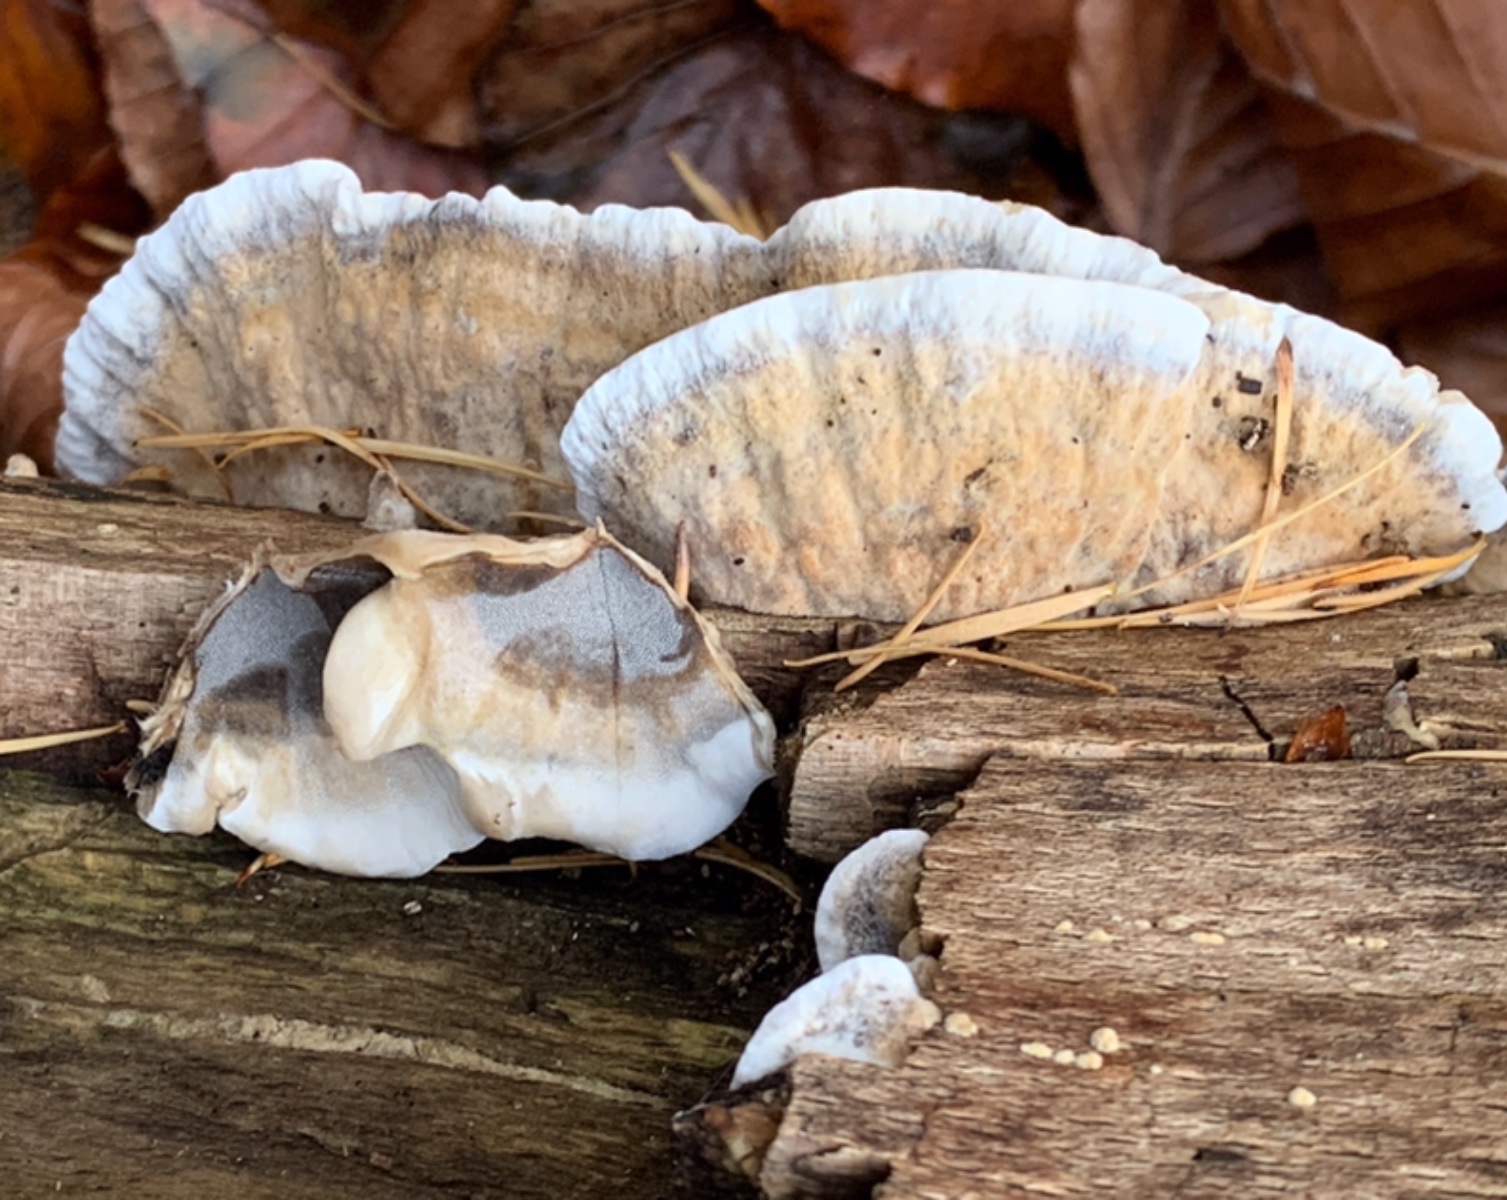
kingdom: Fungi
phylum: Basidiomycota
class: Agaricomycetes
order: Polyporales
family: Phanerochaetaceae
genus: Bjerkandera
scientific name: Bjerkandera adusta
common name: sveden sodporesvamp
